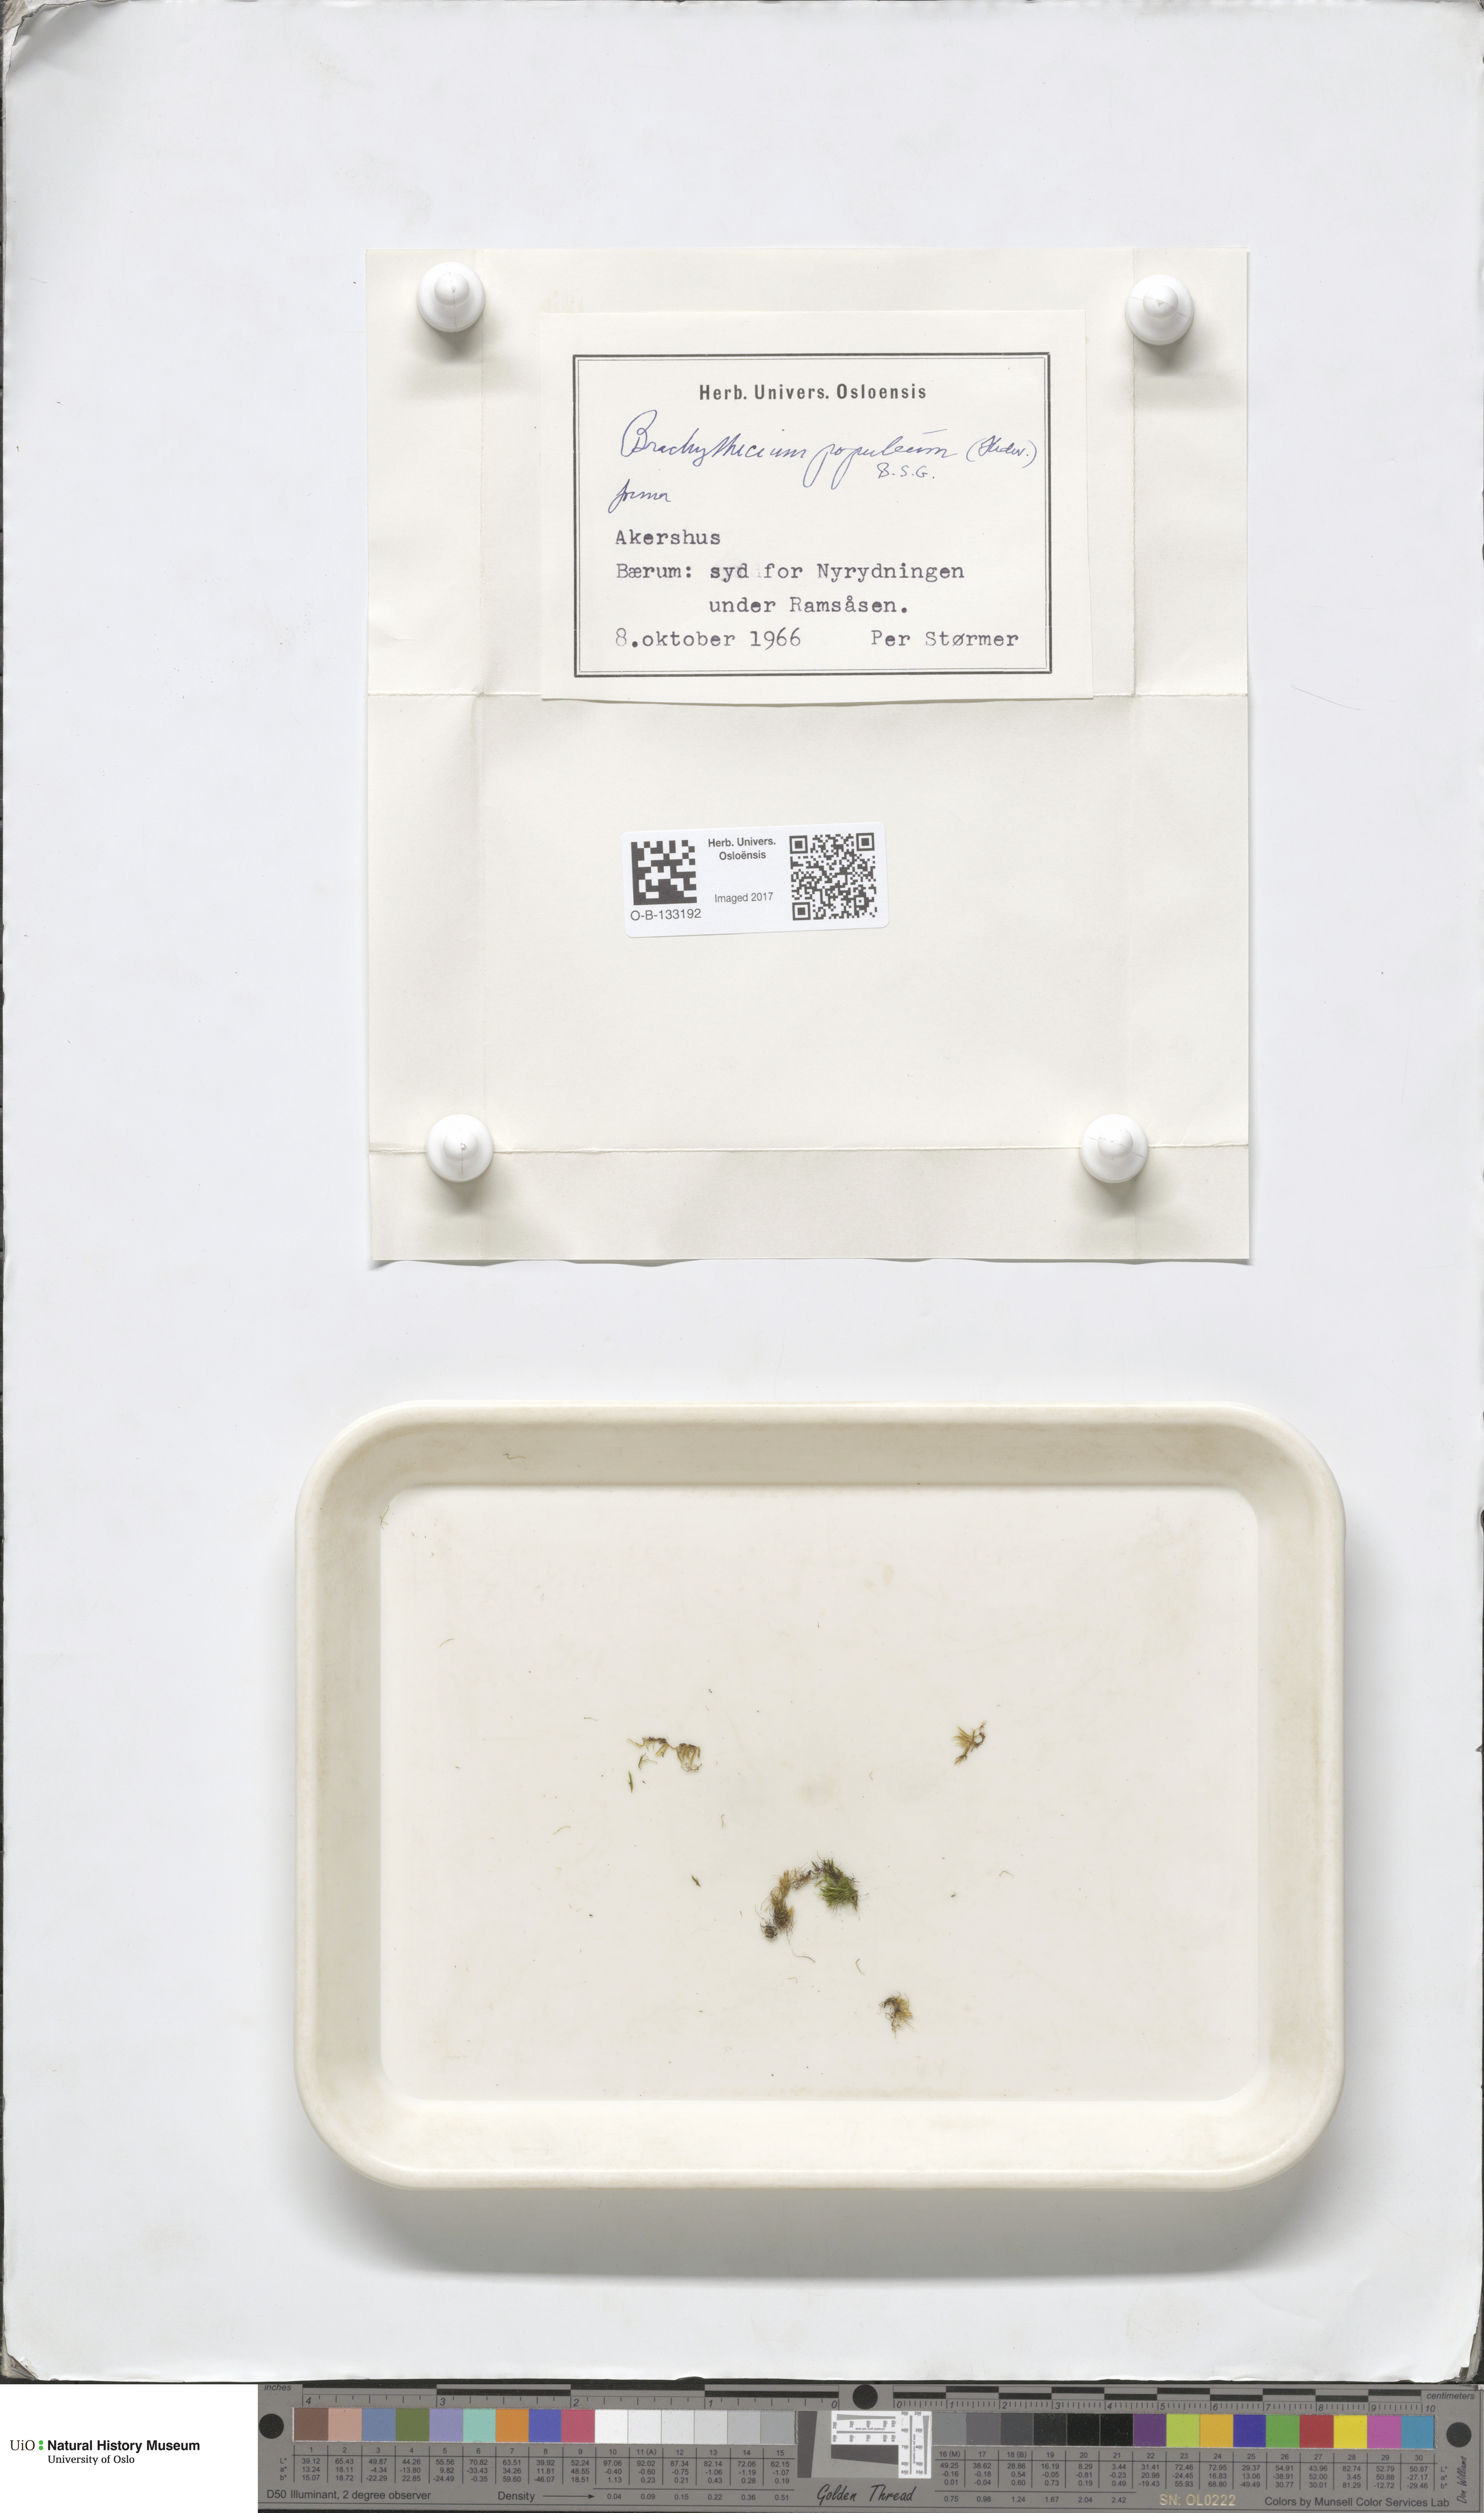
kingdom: Plantae
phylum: Bryophyta
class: Bryopsida
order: Hypnales
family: Brachytheciaceae
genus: Sciuro-hypnum
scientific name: Sciuro-hypnum plumosum
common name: Rusty feather-moss
